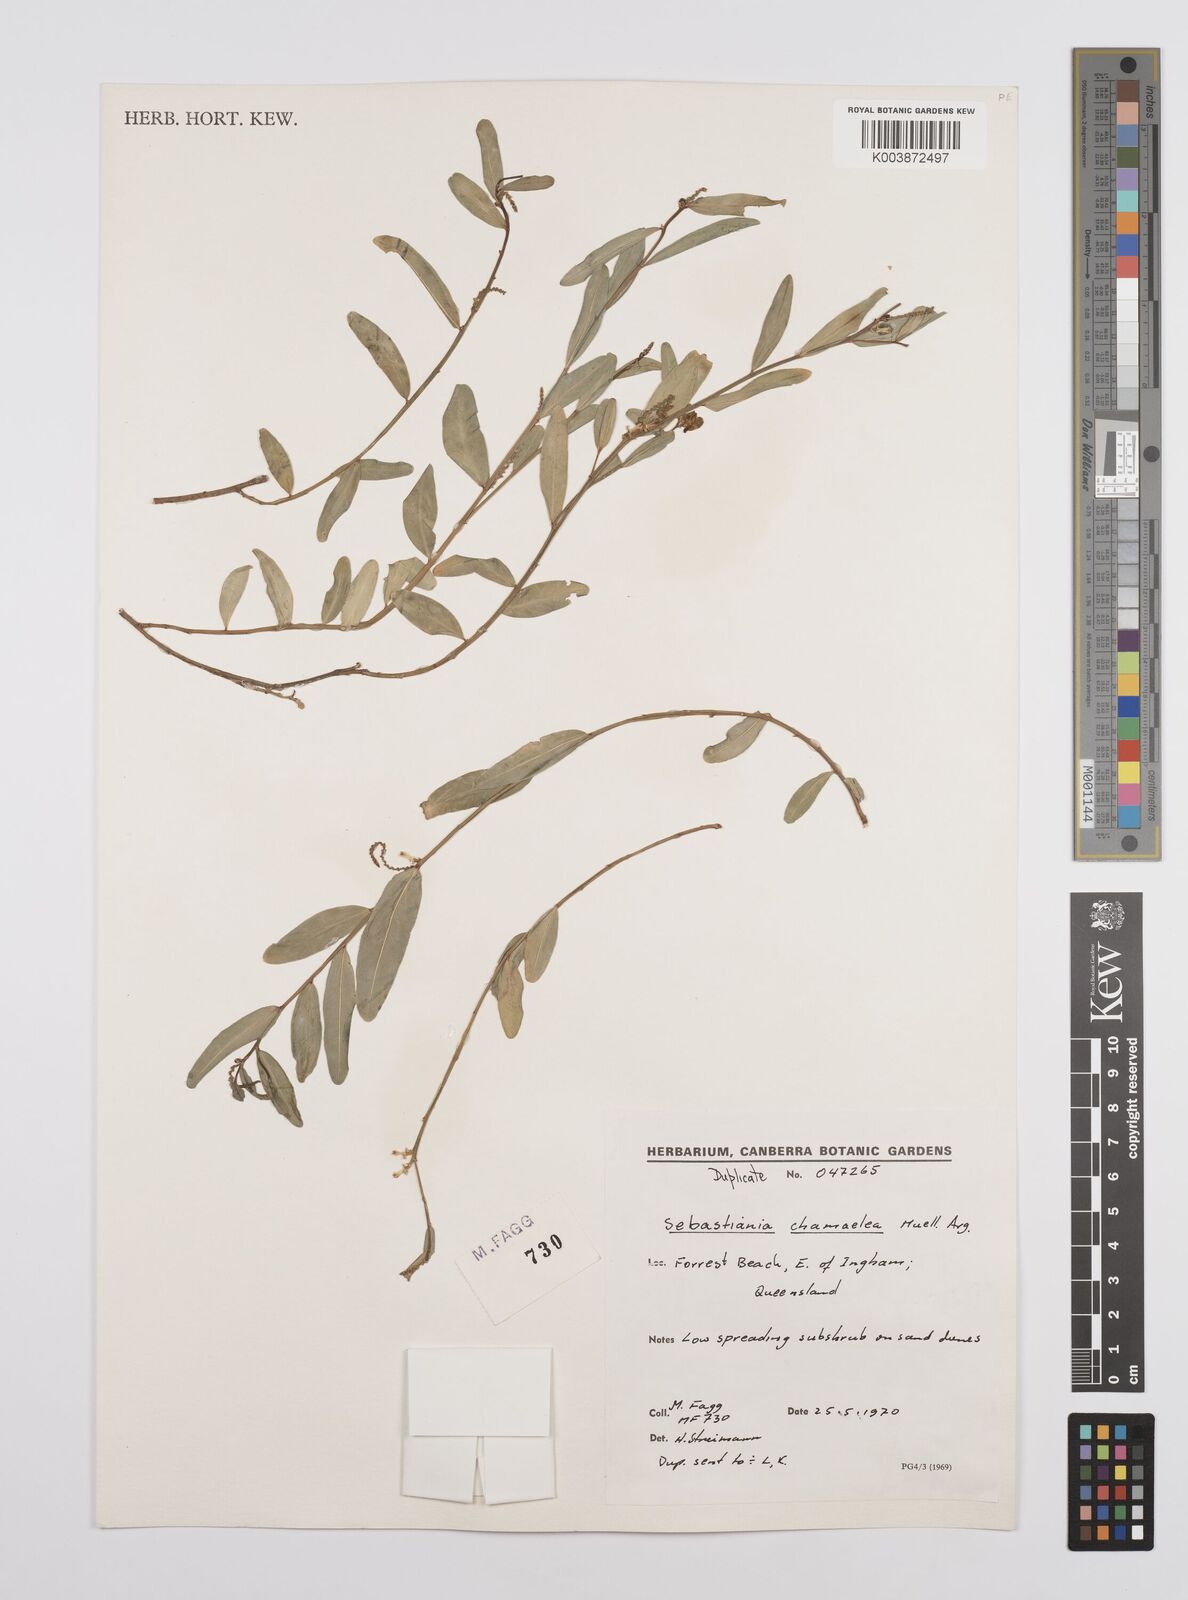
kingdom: Plantae
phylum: Tracheophyta
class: Magnoliopsida
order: Malpighiales
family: Euphorbiaceae
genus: Microstachys
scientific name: Microstachys chamaelea
